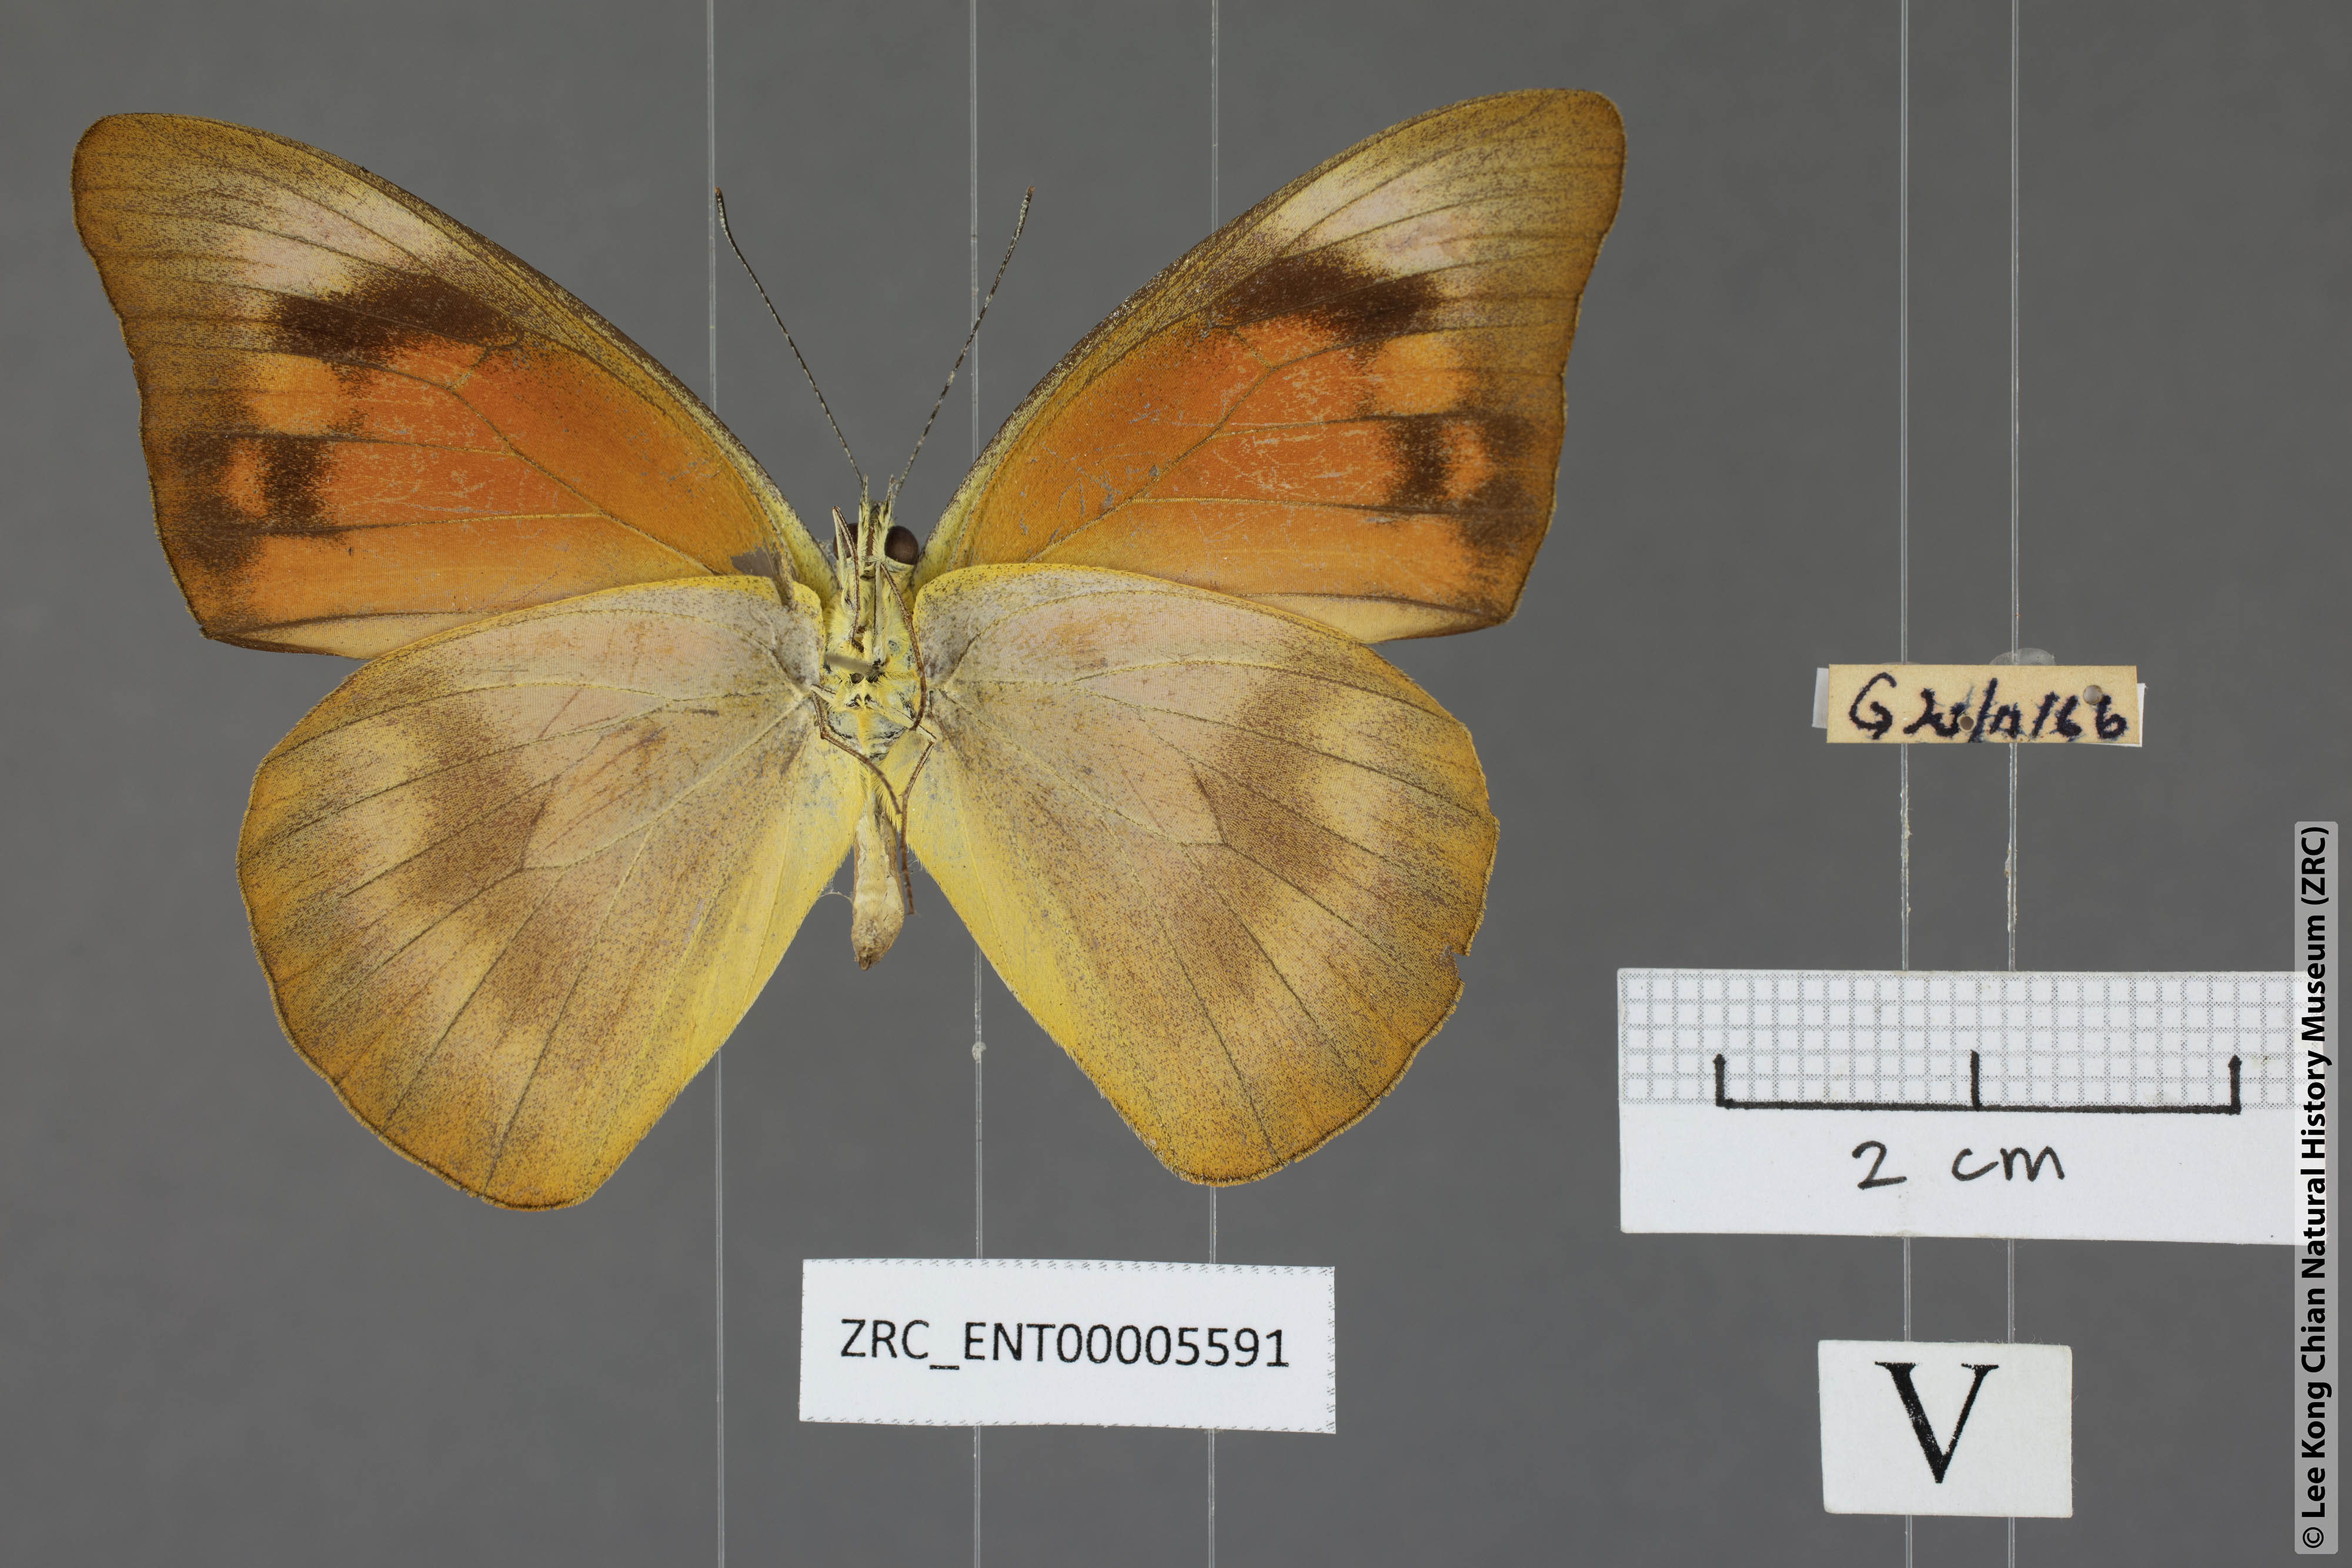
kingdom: Animalia
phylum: Arthropoda
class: Insecta
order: Lepidoptera
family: Pieridae
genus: Appias
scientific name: Appias nero
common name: Orange albatross
